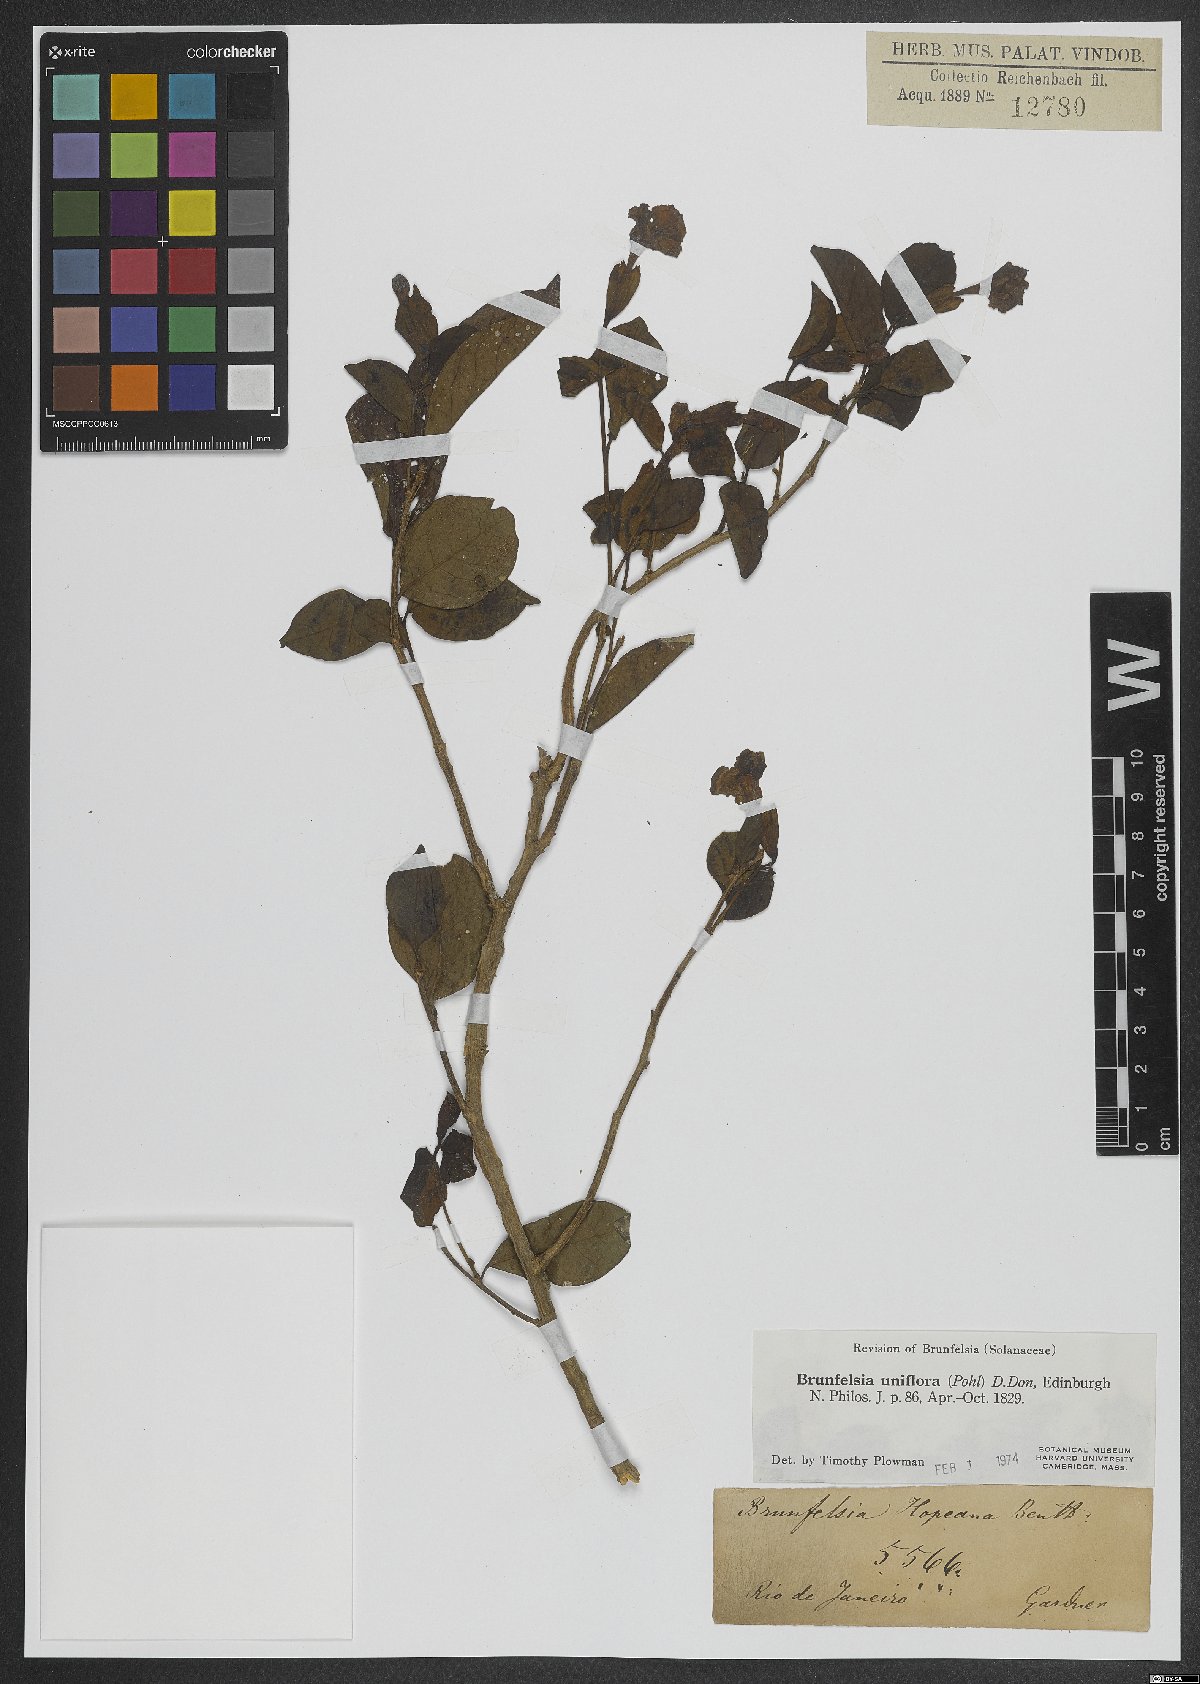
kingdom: Plantae
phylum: Tracheophyta
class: Magnoliopsida
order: Solanales
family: Solanaceae
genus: Brunfelsia
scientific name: Brunfelsia uniflora
